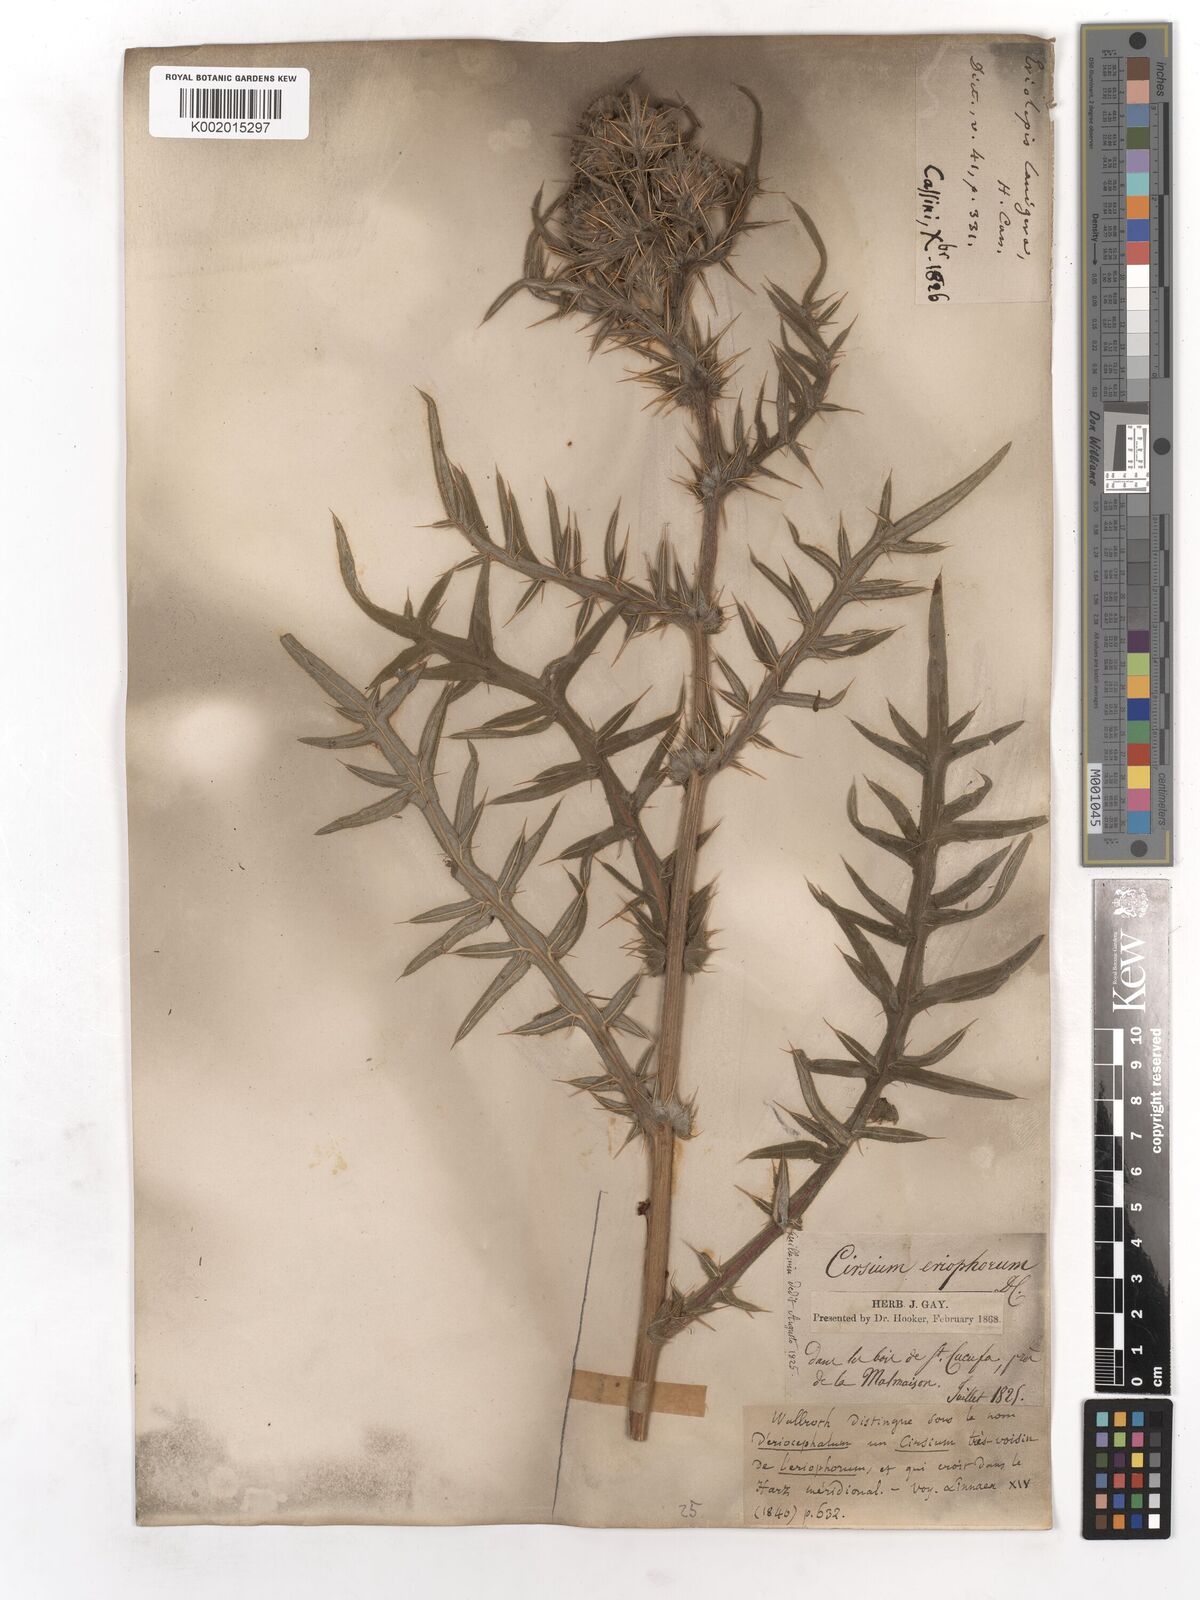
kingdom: Plantae
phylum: Tracheophyta
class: Magnoliopsida
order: Asterales
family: Asteraceae
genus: Lophiolepis
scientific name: Lophiolepis eriophora
